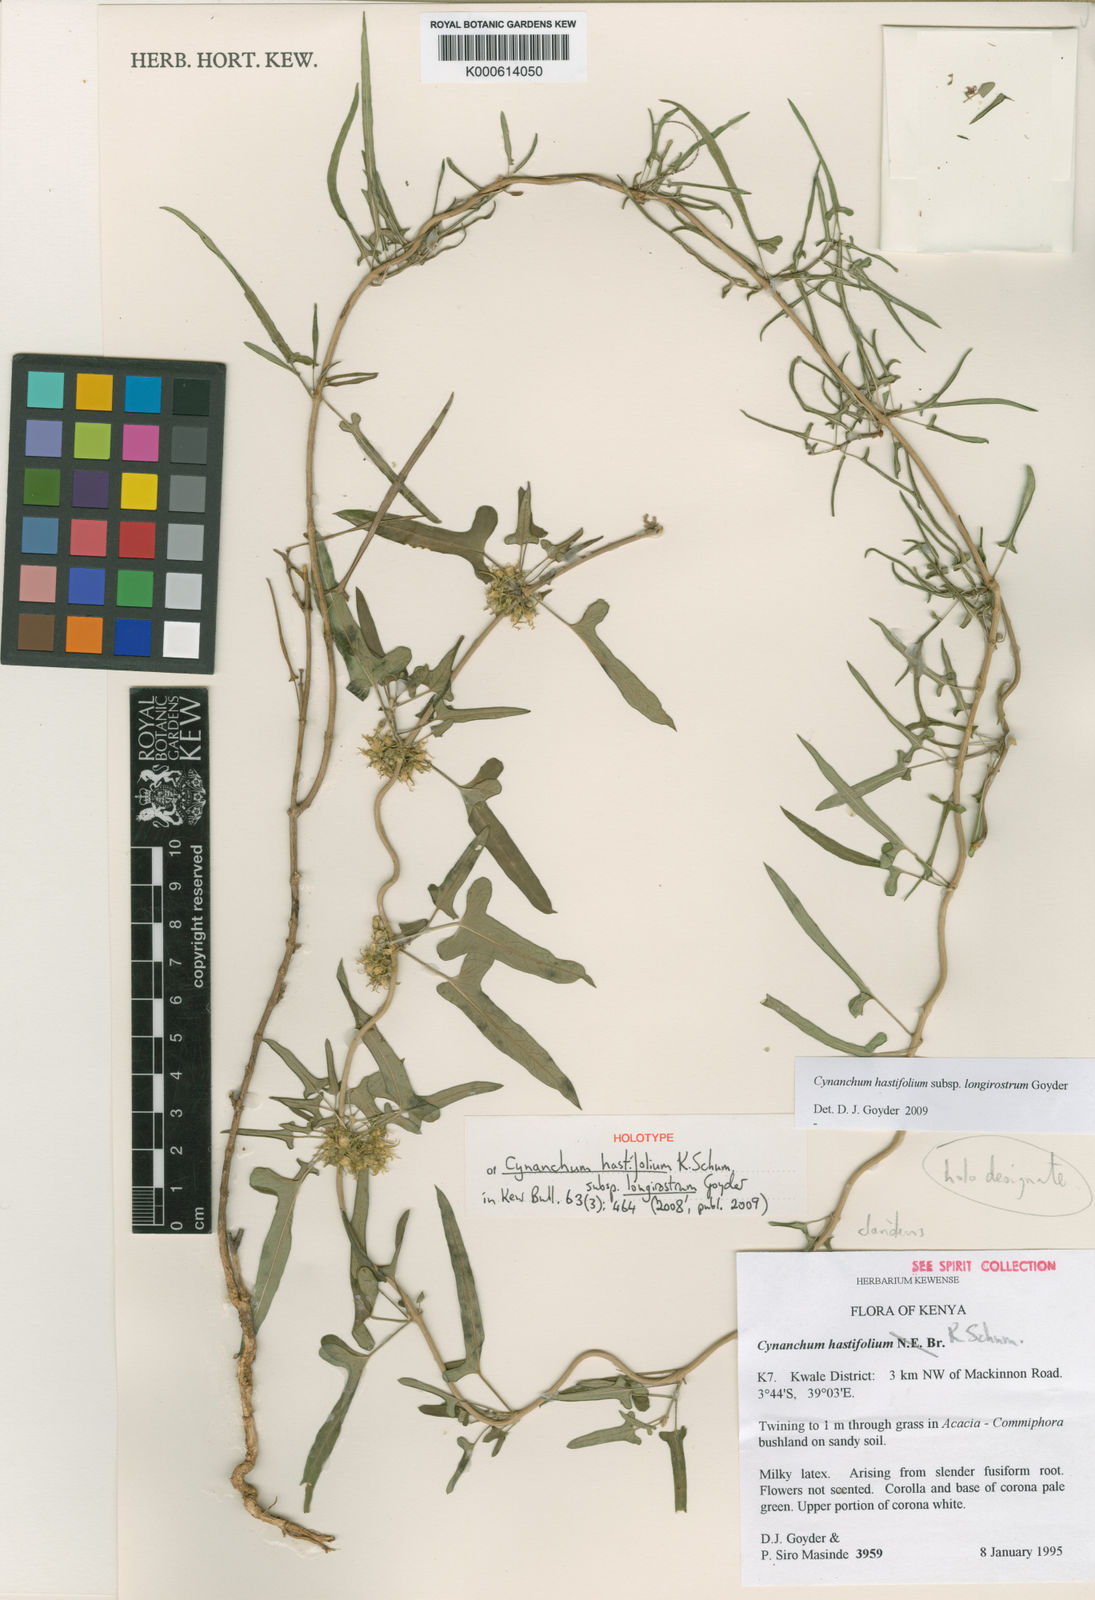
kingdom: Plantae
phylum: Tracheophyta
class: Magnoliopsida
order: Gentianales
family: Apocynaceae
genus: Cynanchum
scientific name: Cynanchum hastifolium
